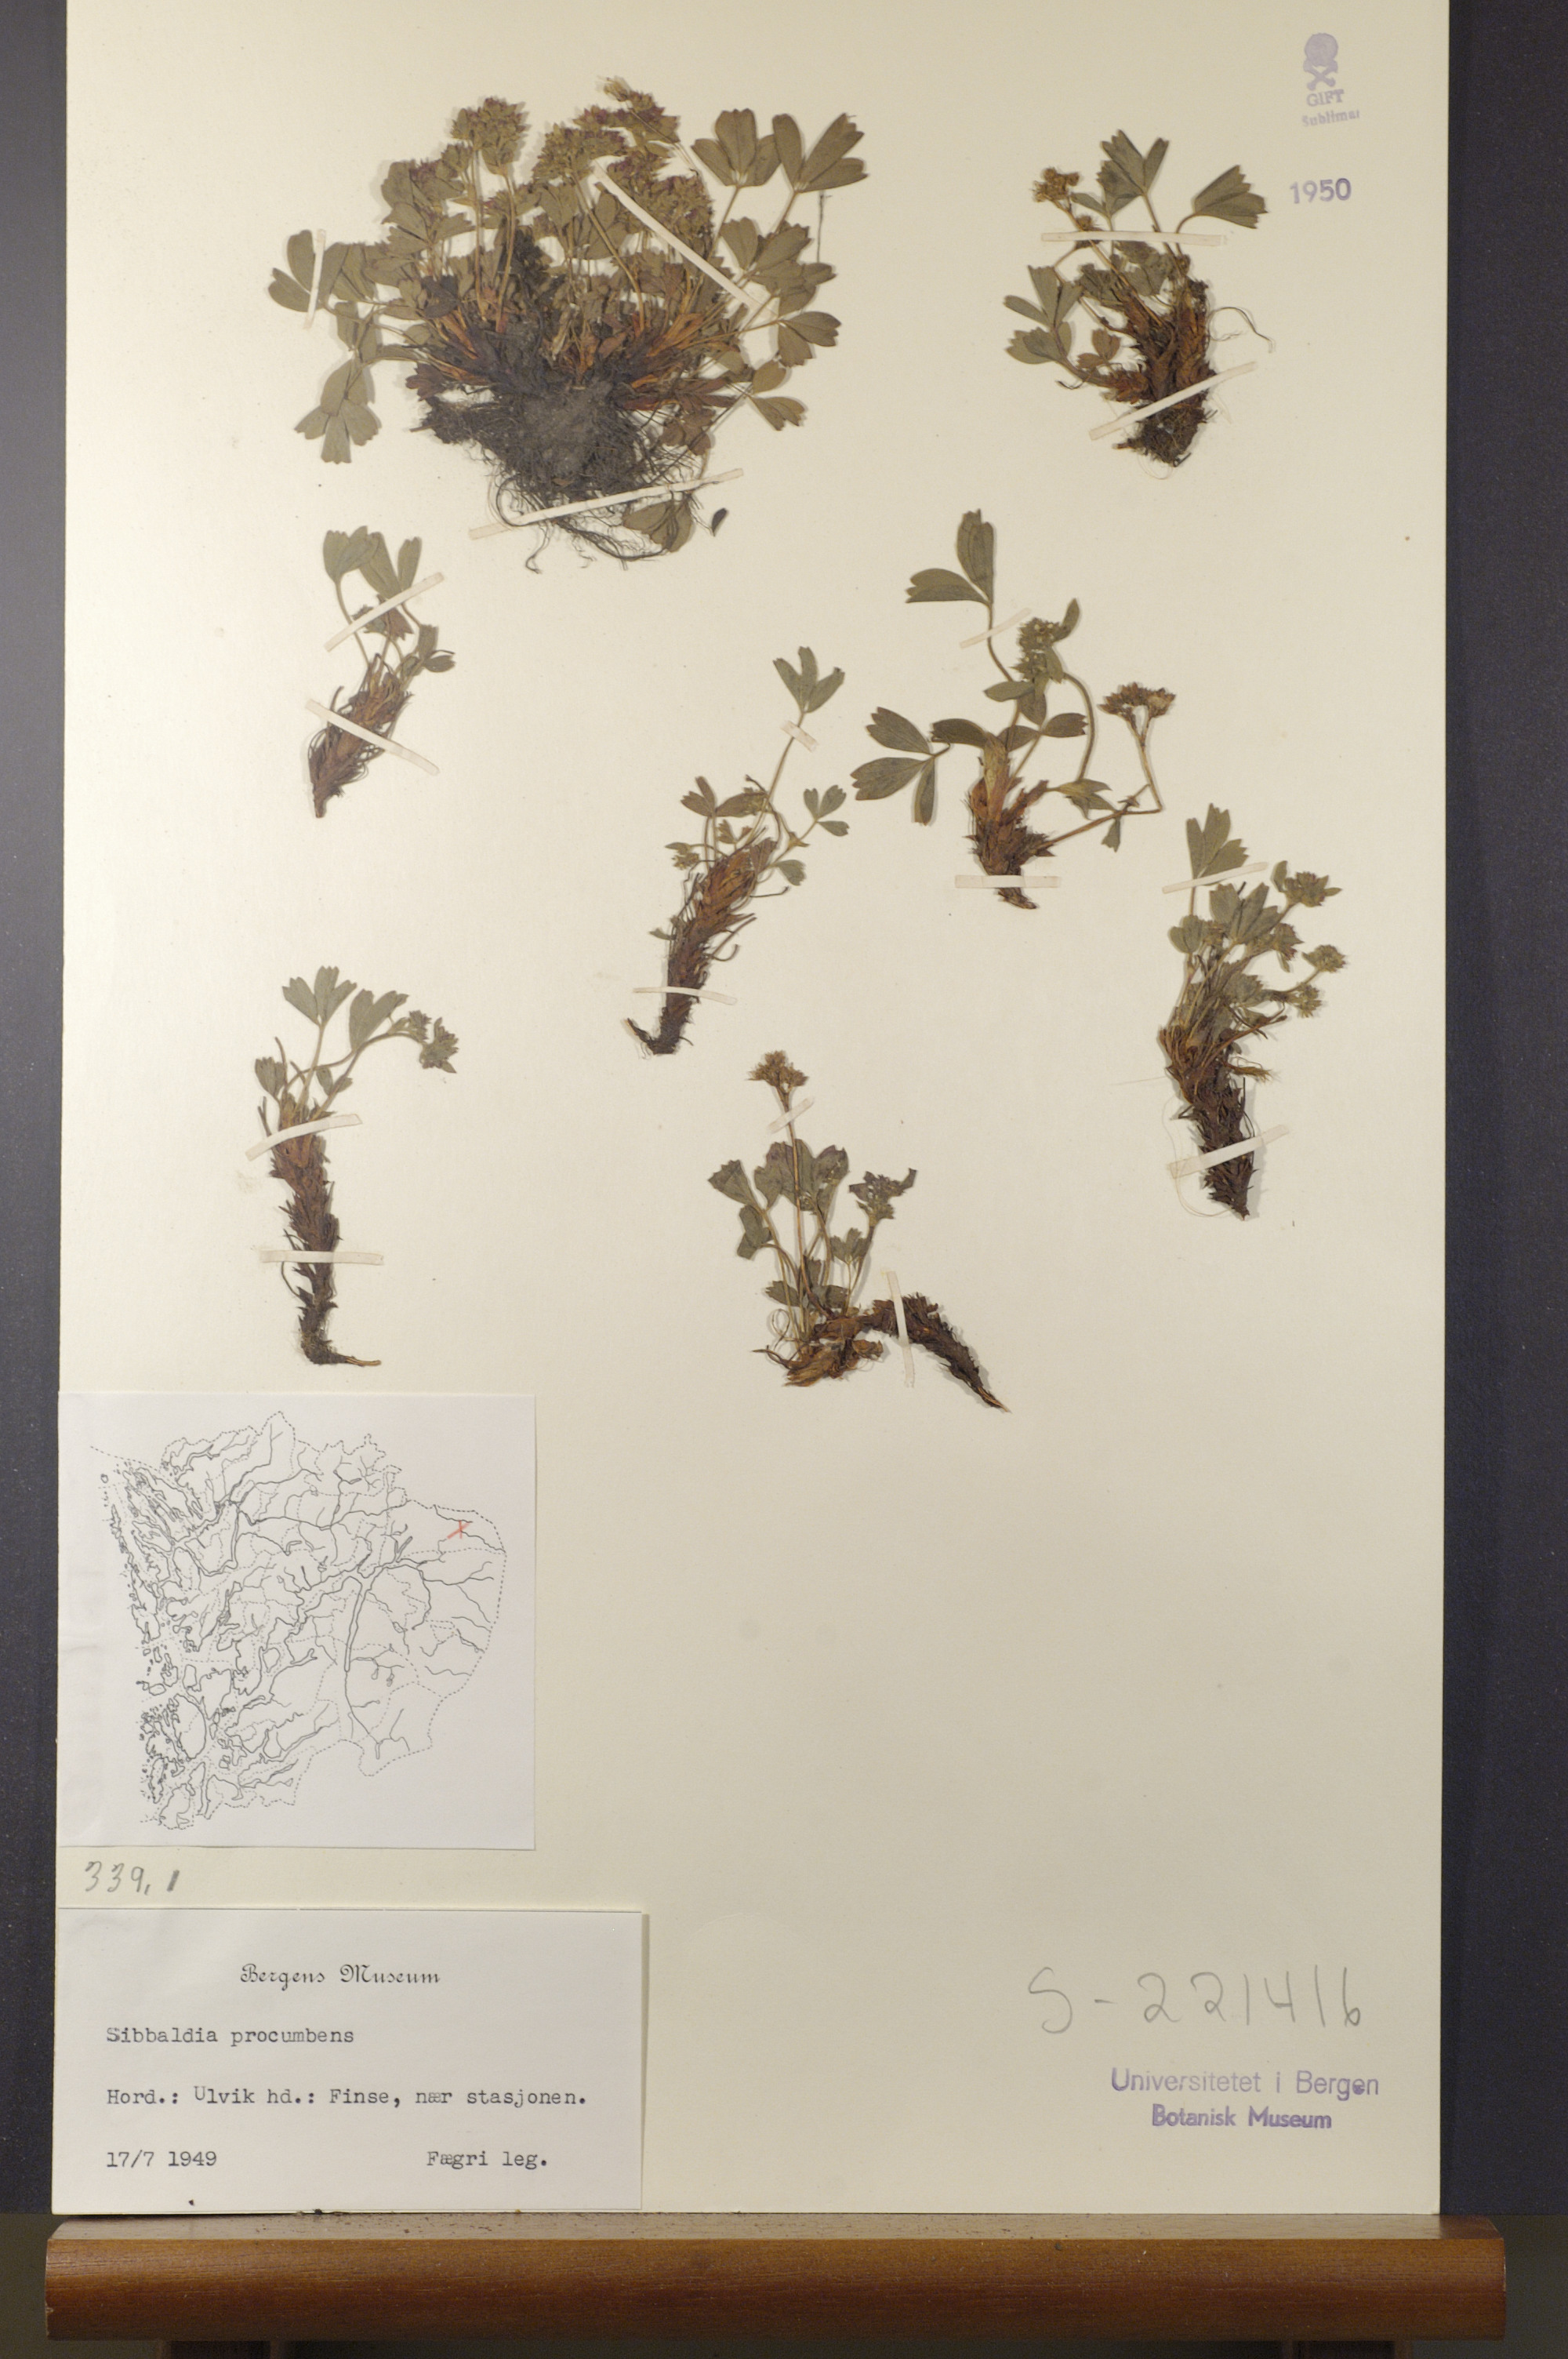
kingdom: Plantae
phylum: Tracheophyta
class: Magnoliopsida
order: Rosales
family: Rosaceae
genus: Sibbaldia
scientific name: Sibbaldia procumbens
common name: Creeping sibbaldia
